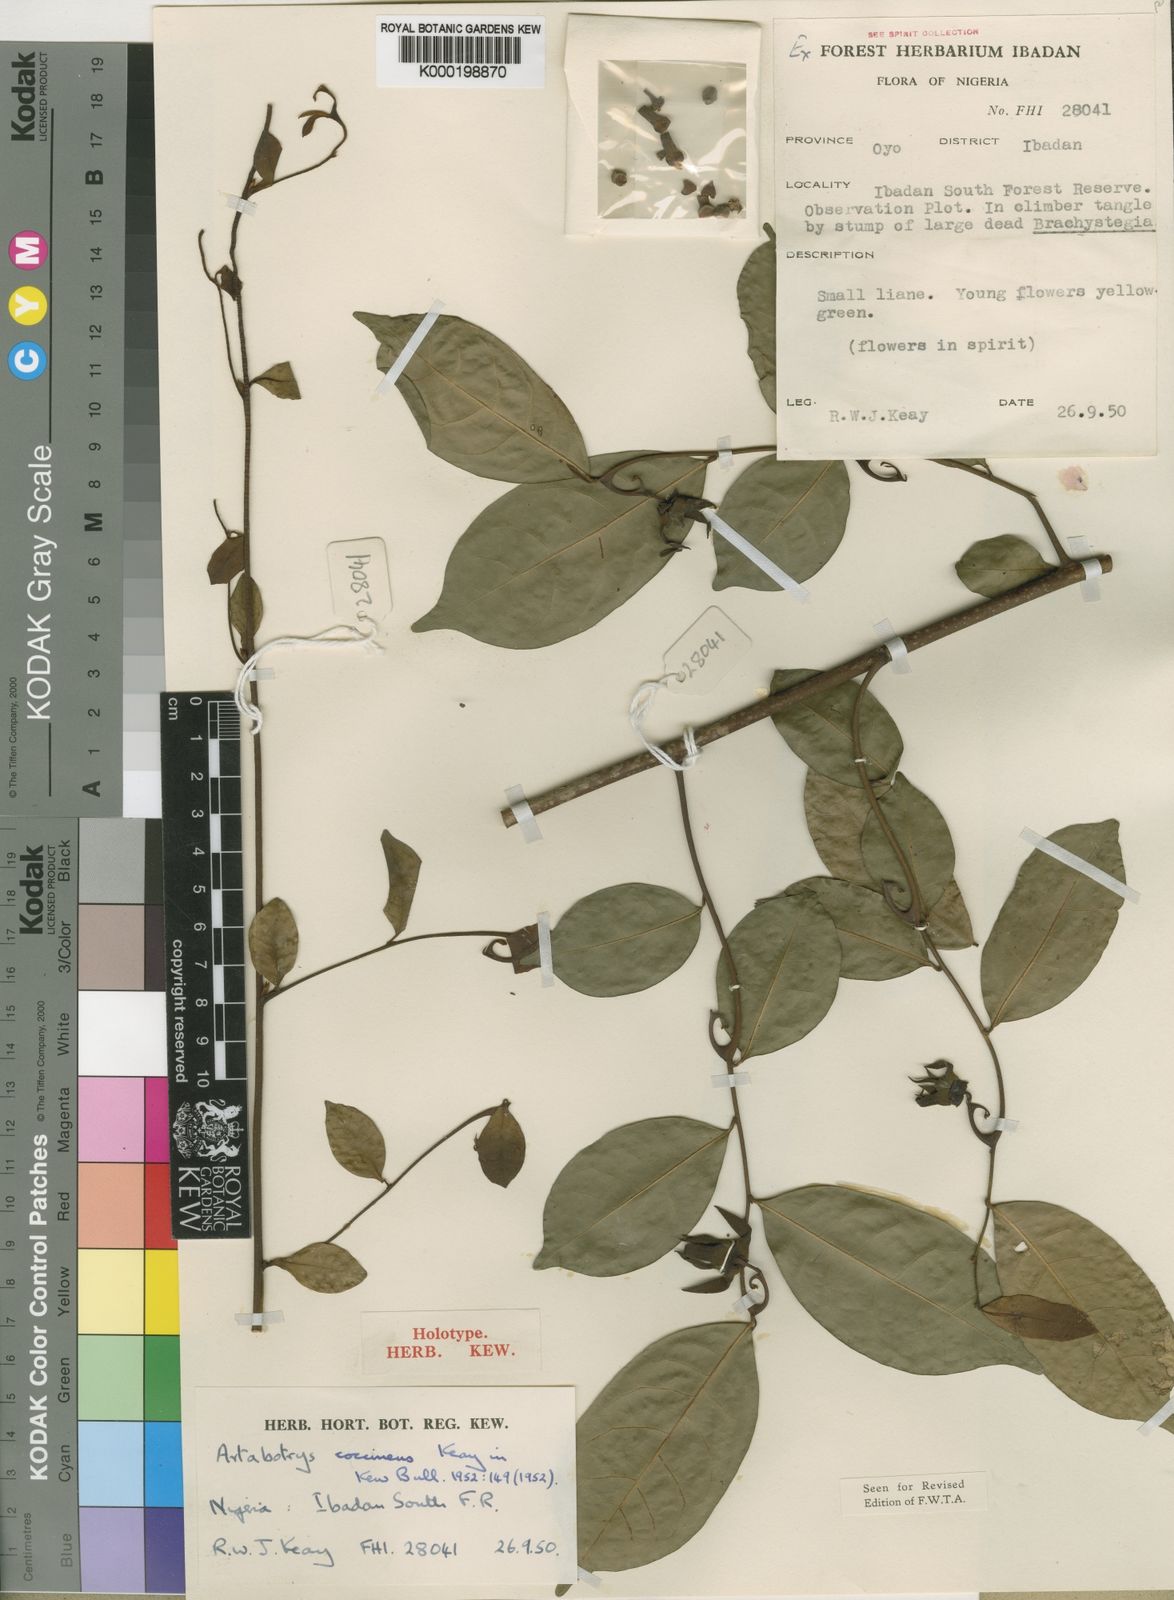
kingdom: Plantae
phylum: Tracheophyta
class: Magnoliopsida
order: Magnoliales
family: Annonaceae
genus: Artabotrys
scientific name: Artabotrys coccineus
